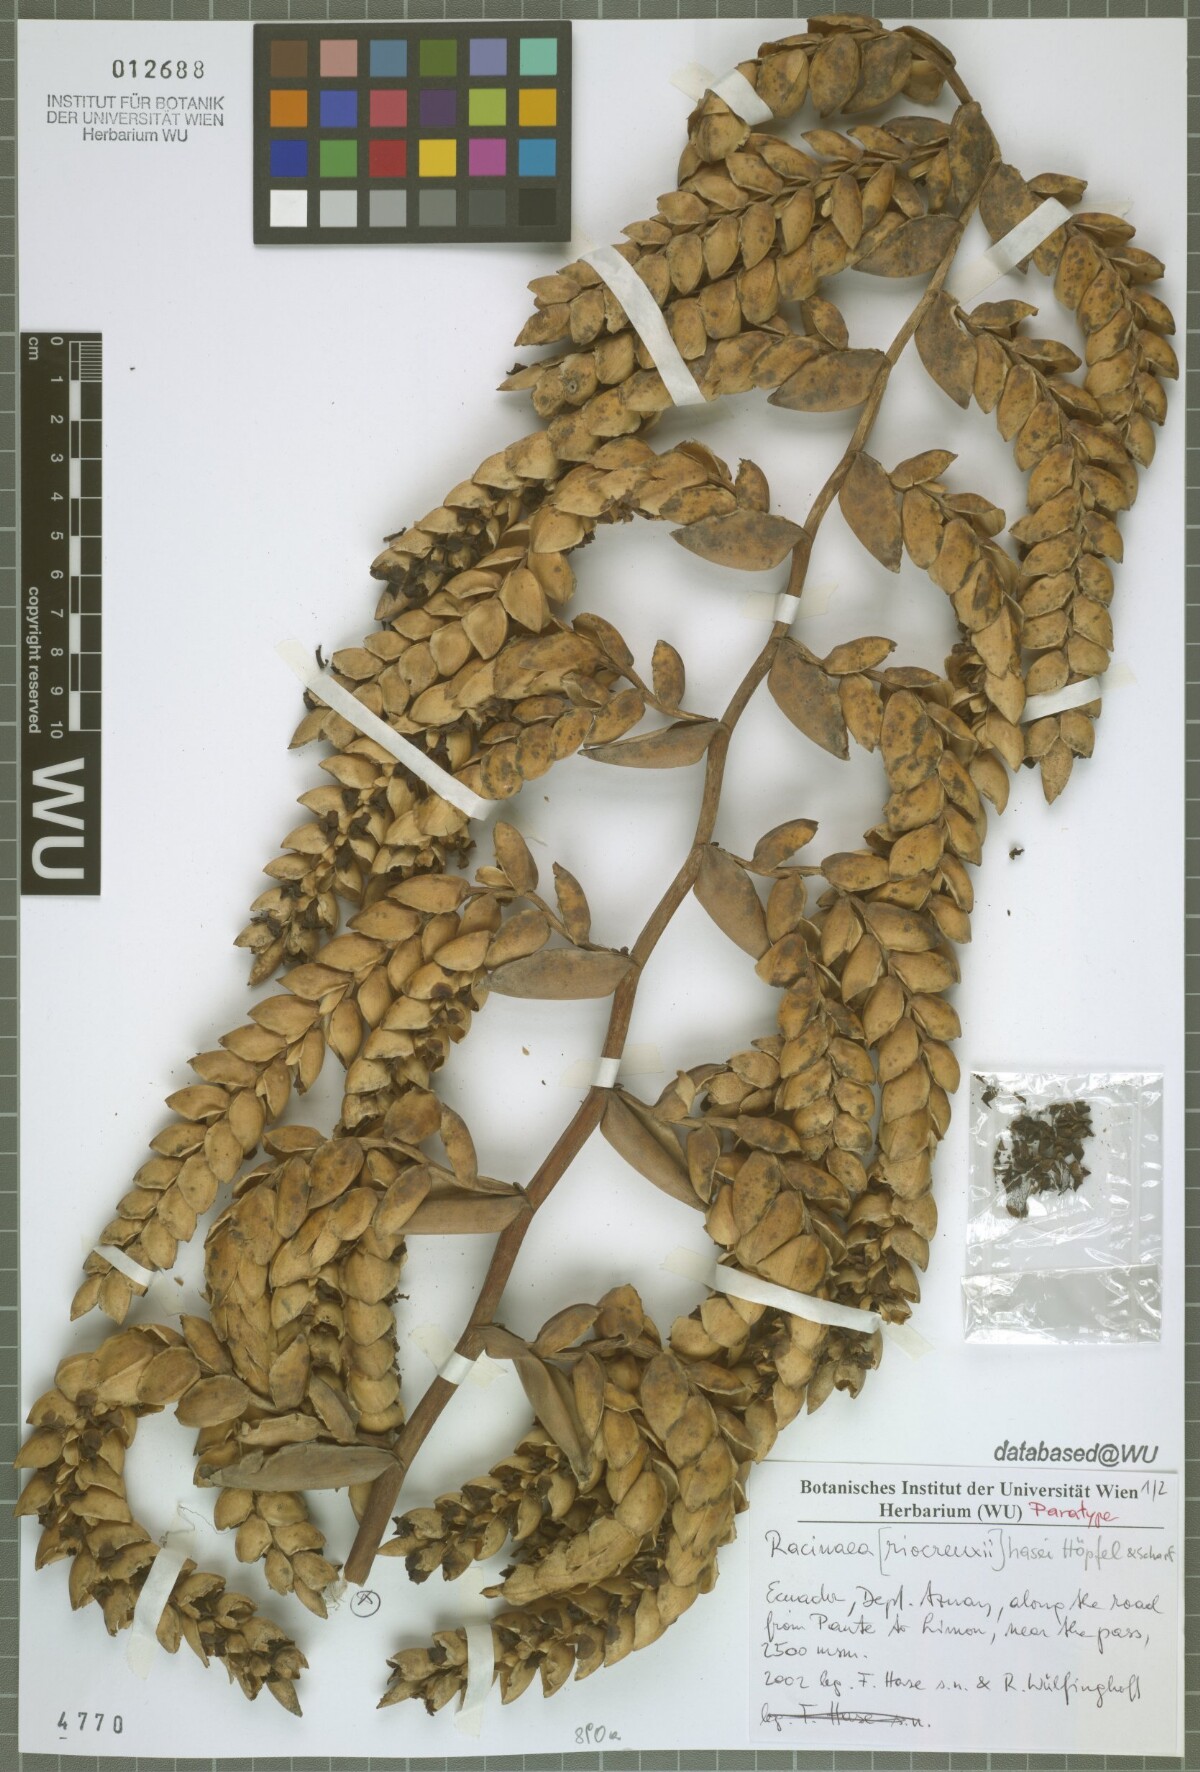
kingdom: Plantae
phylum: Tracheophyta
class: Liliopsida
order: Poales
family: Bromeliaceae
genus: Racinaea
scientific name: Racinaea hasei
